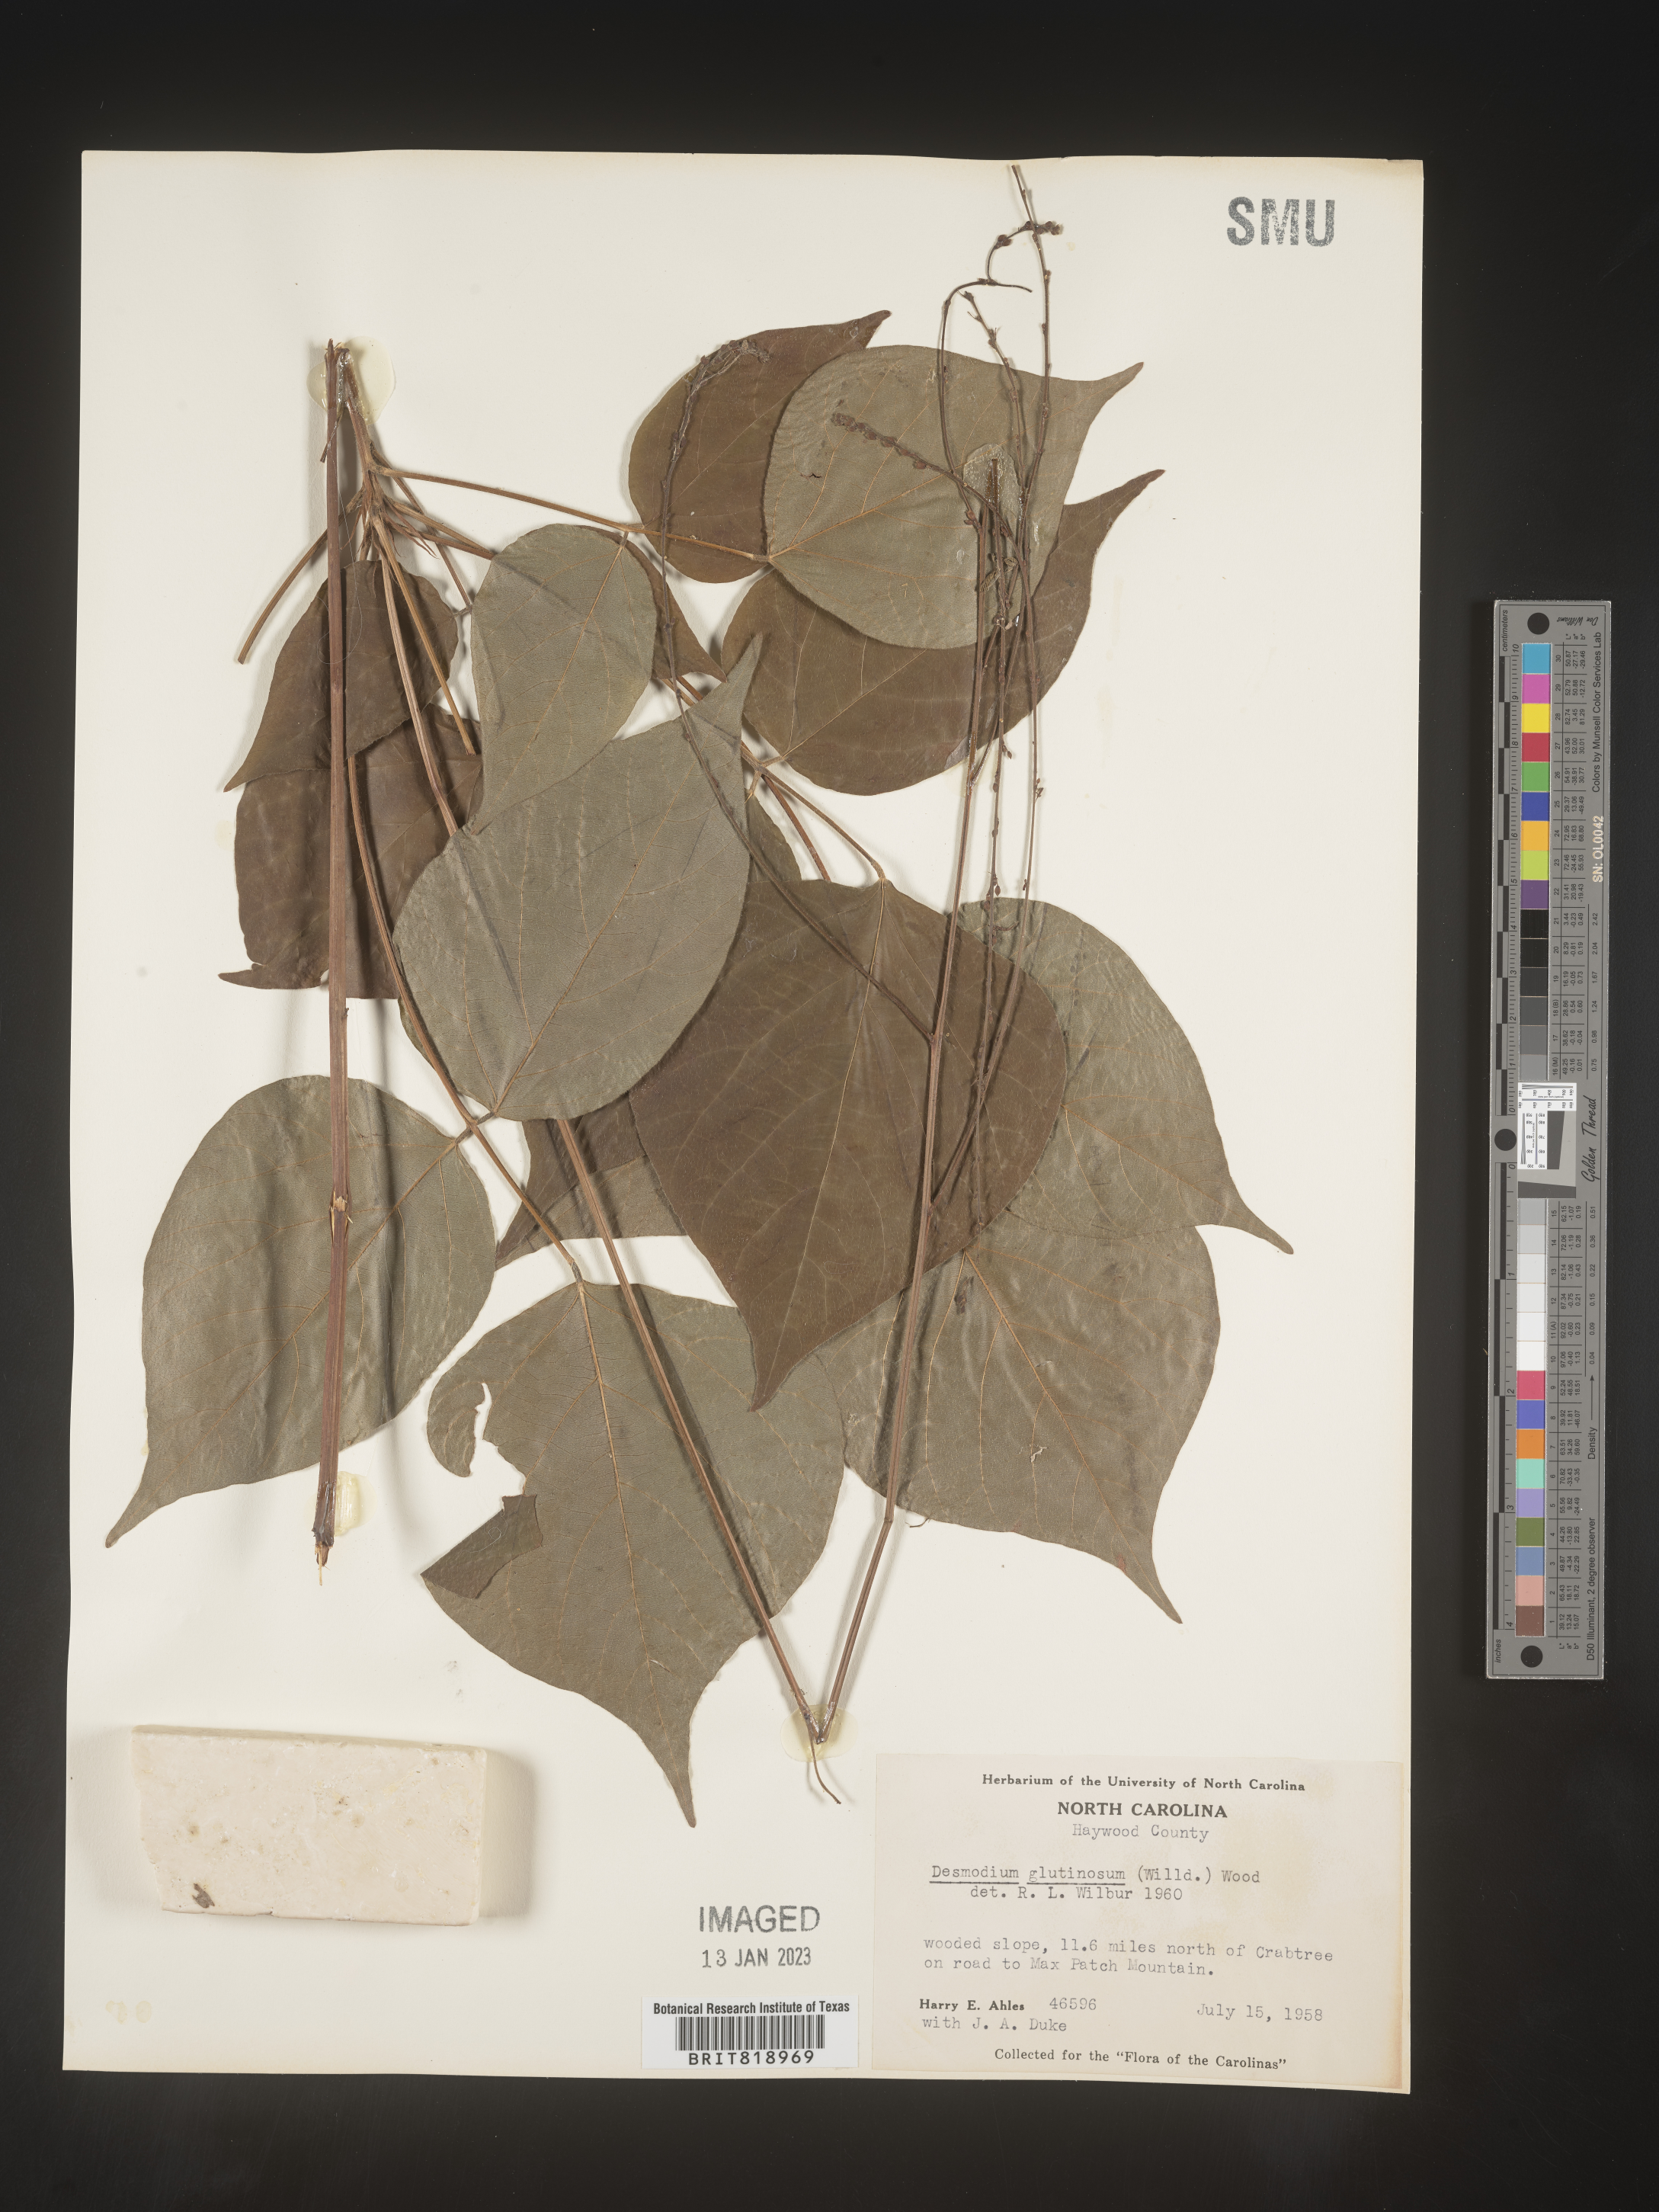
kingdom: Plantae
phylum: Tracheophyta
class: Magnoliopsida
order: Fabales
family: Fabaceae
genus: Hylodesmum
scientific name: Hylodesmum glutinosum
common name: Clustered-leaved tick-trefoil
